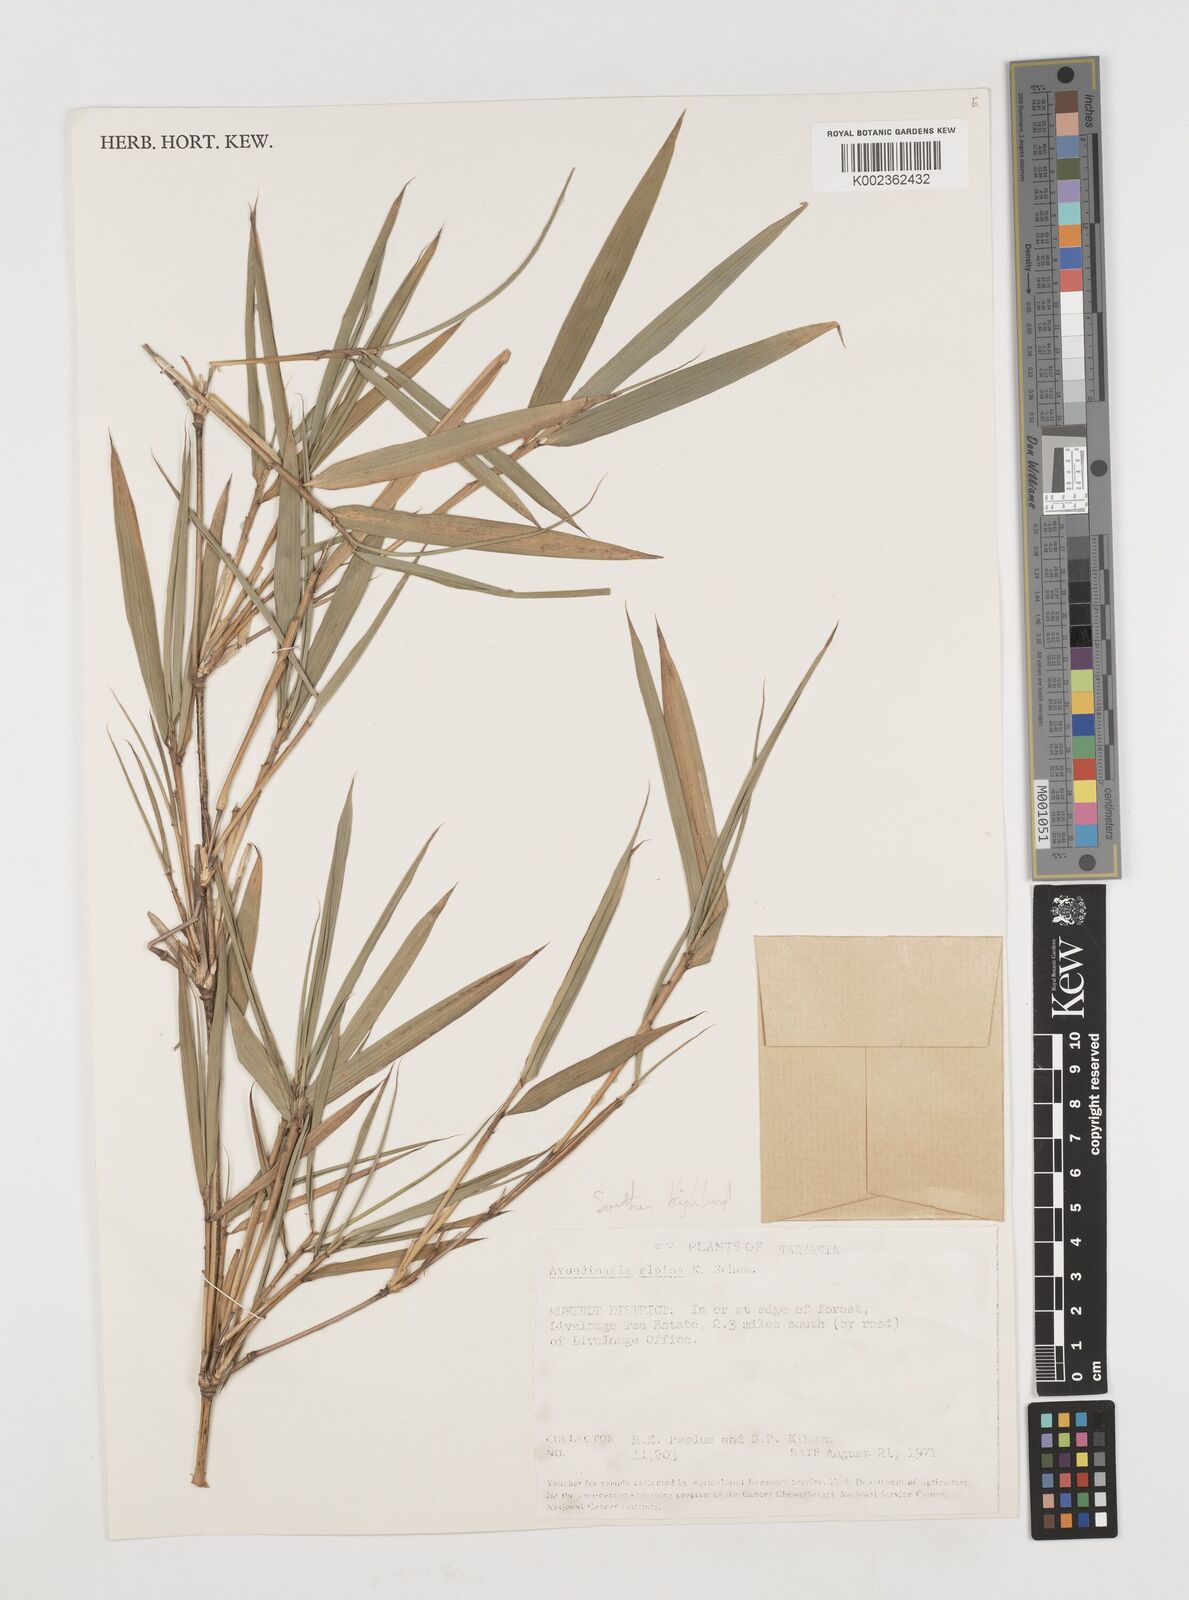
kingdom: Plantae
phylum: Tracheophyta
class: Liliopsida
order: Poales
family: Poaceae
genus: Oldeania
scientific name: Oldeania alpina
